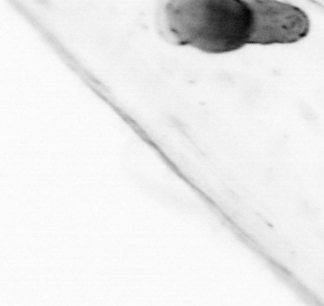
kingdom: Animalia
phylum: Chaetognatha
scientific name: Chaetognatha
